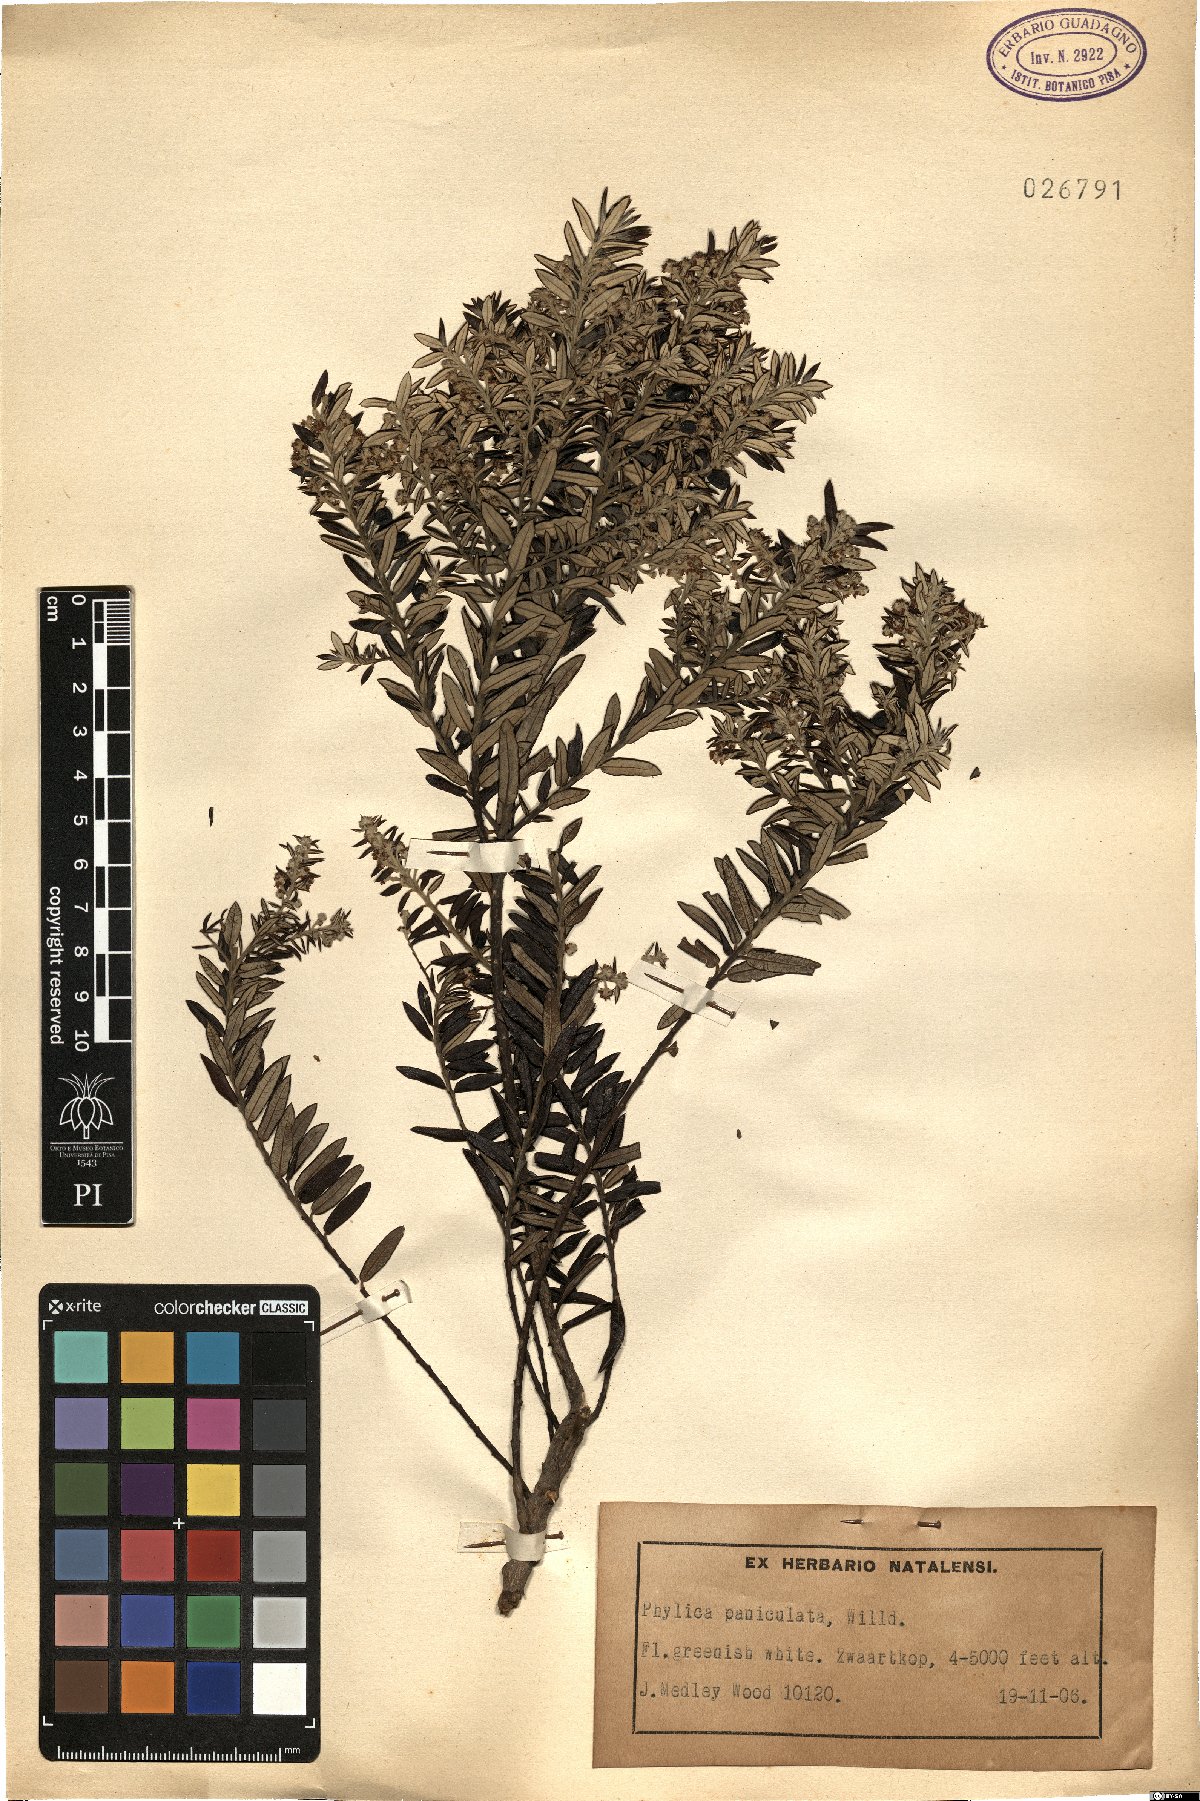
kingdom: Plantae
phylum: Tracheophyta
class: Magnoliopsida
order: Rosales
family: Rhamnaceae
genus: Phylica
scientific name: Phylica paniculata
